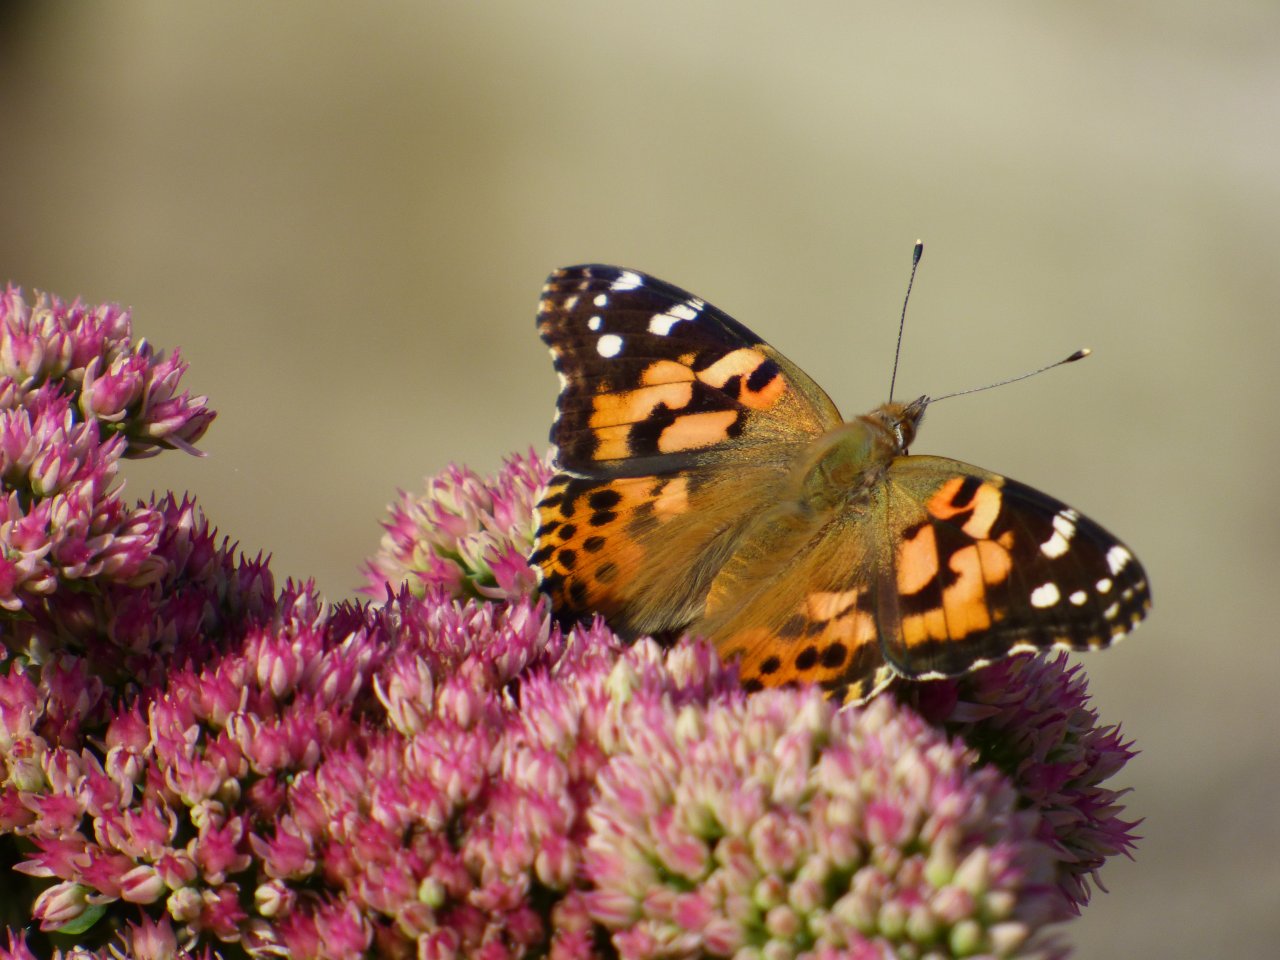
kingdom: Animalia
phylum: Arthropoda
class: Insecta
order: Lepidoptera
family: Nymphalidae
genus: Vanessa
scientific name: Vanessa cardui
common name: Painted Lady
